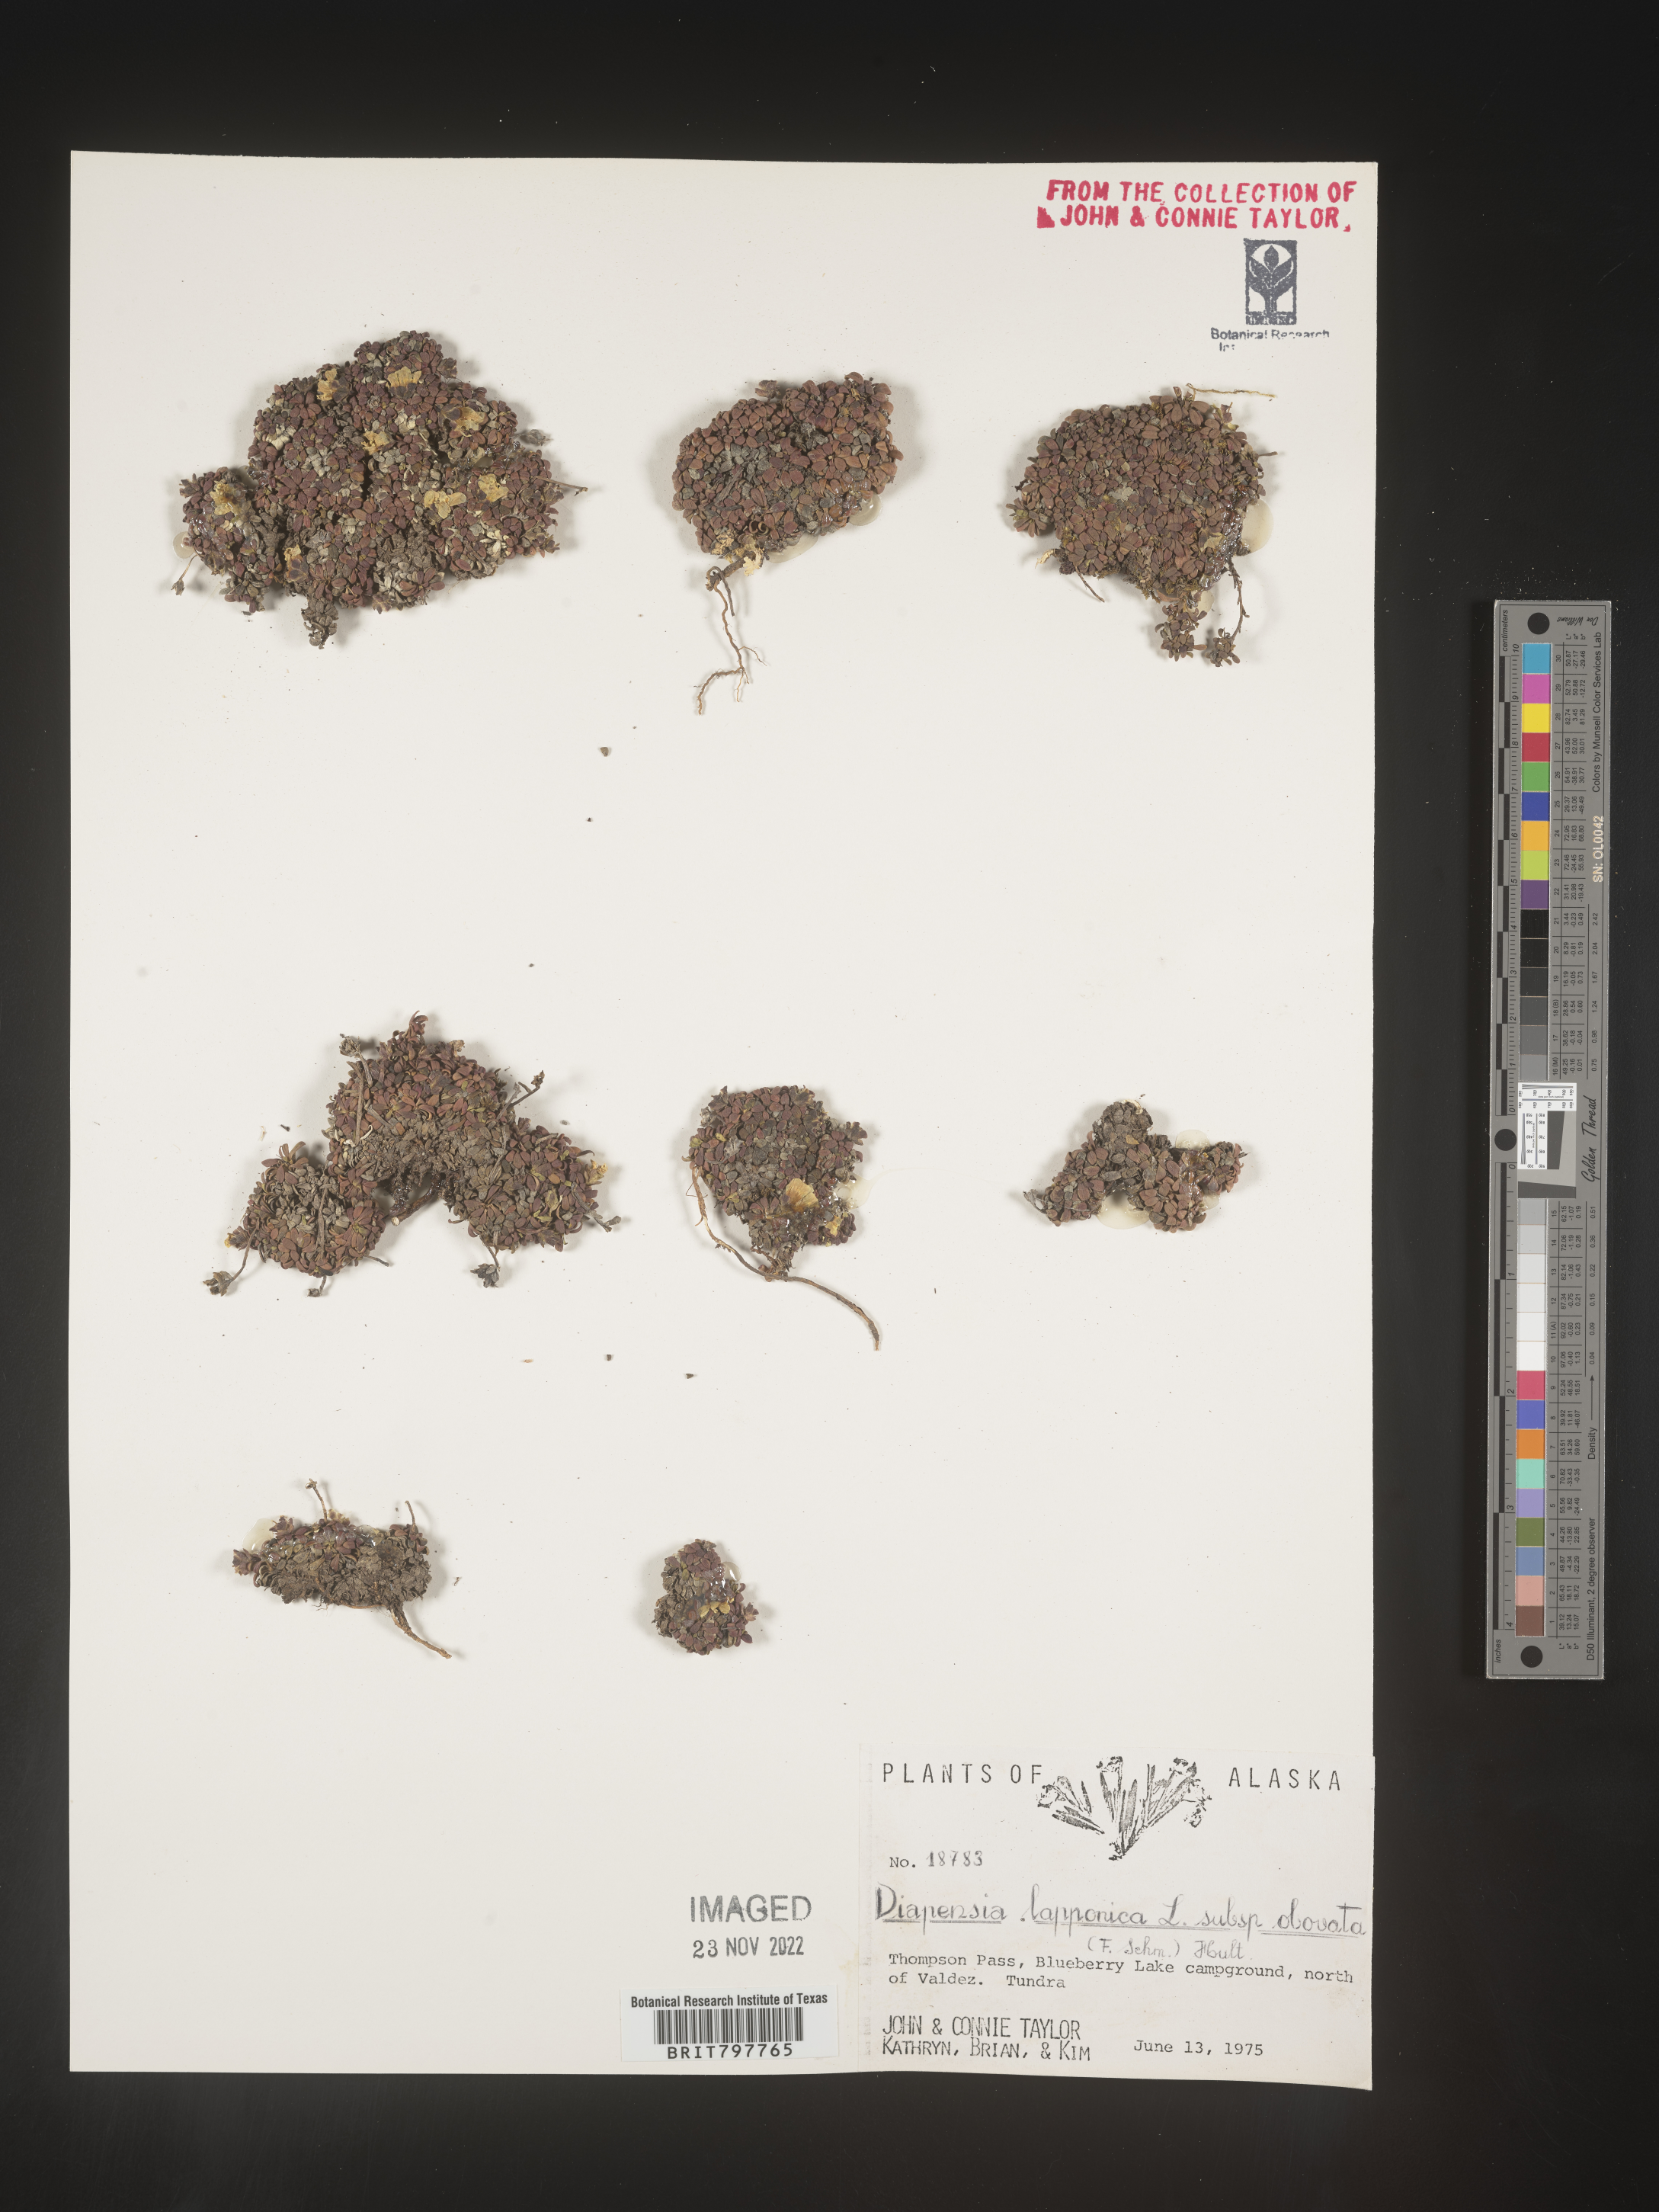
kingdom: Plantae
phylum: Tracheophyta
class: Magnoliopsida
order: Ericales
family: Diapensiaceae
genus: Diapensia
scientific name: Diapensia obovata
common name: Alaska diapensia
